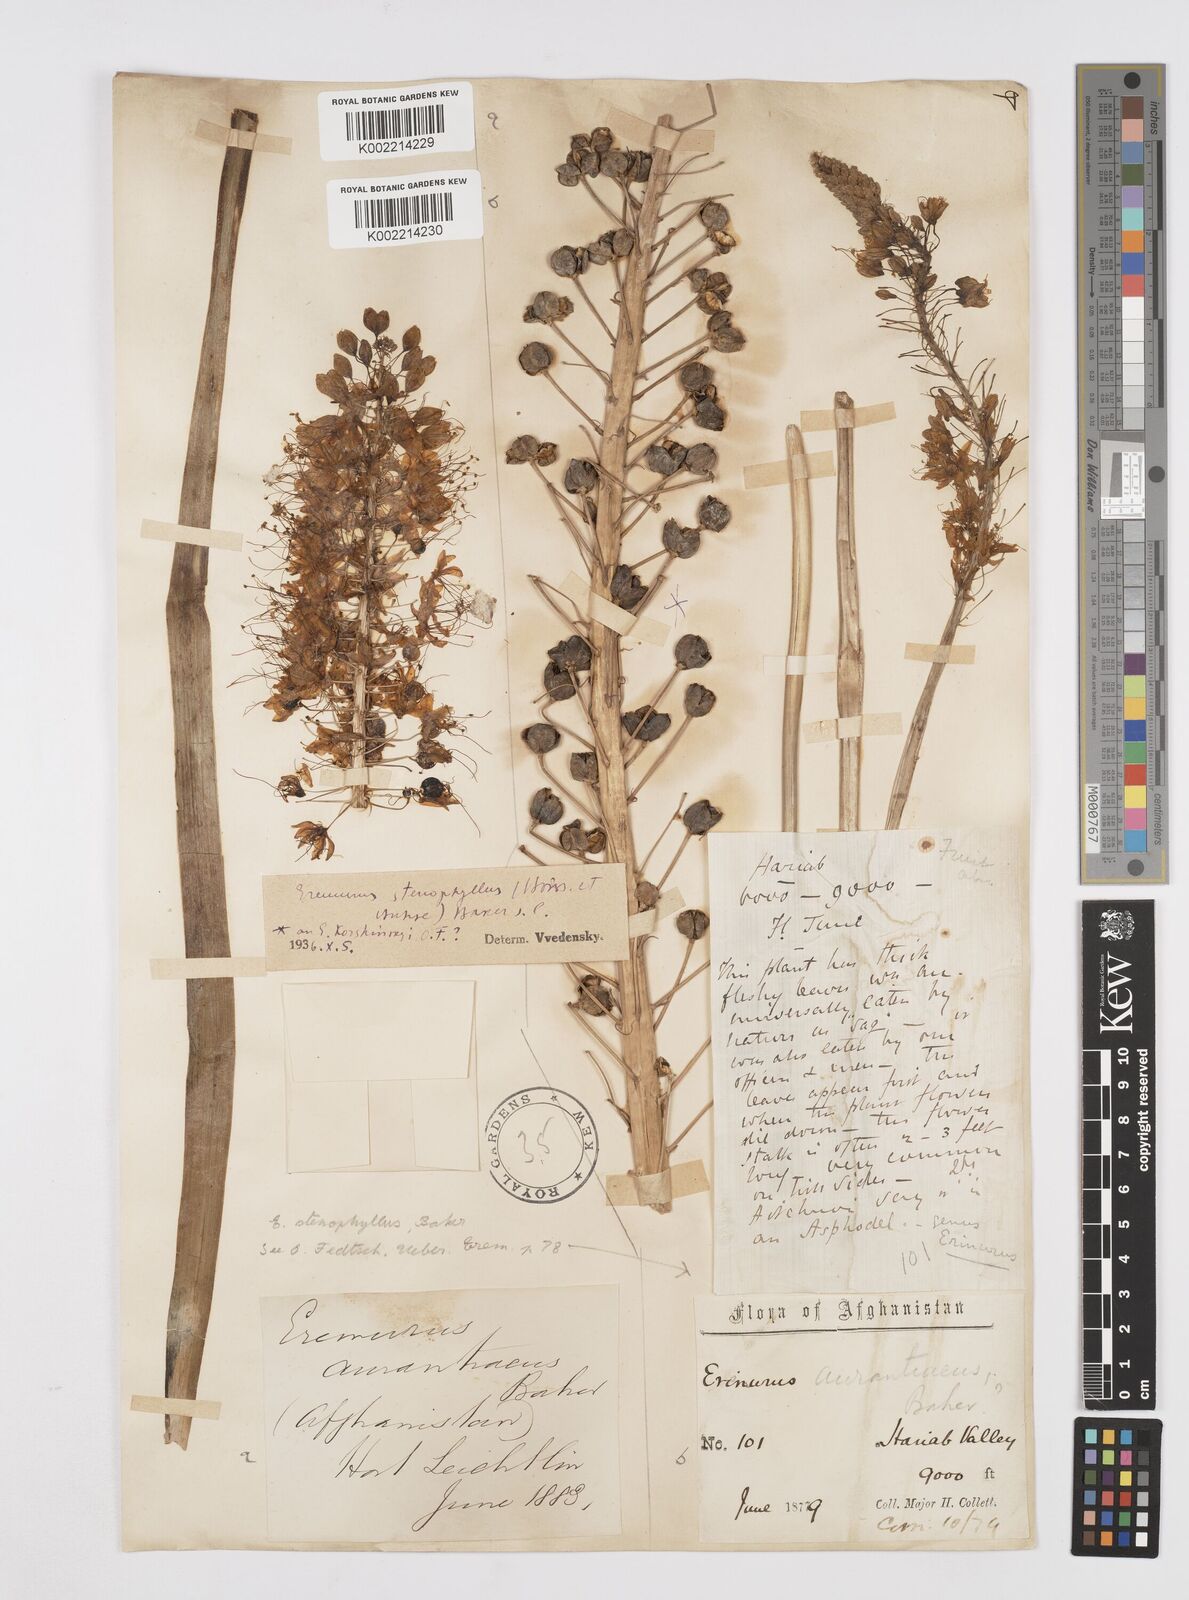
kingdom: Plantae
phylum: Tracheophyta
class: Liliopsida
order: Asparagales
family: Asphodelaceae
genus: Eremurus
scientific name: Eremurus stenophyllus
